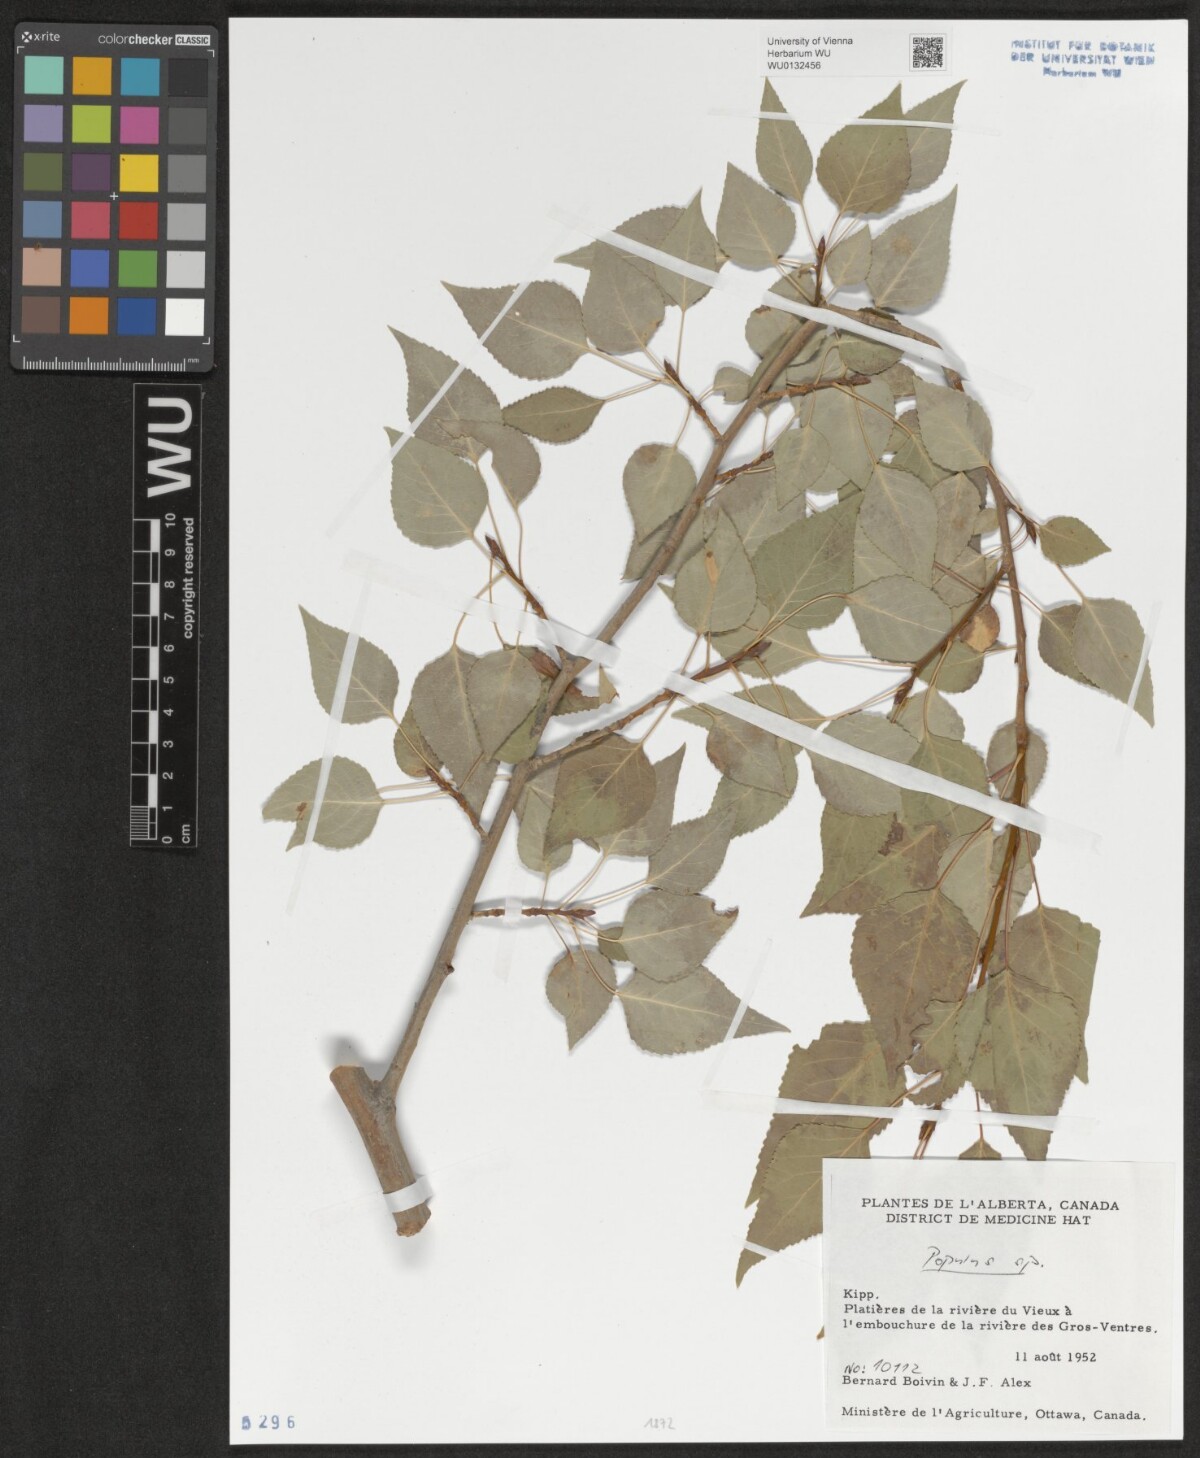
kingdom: Plantae
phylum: Tracheophyta
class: Magnoliopsida
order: Malpighiales
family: Salicaceae
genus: Populus
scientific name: Populus
